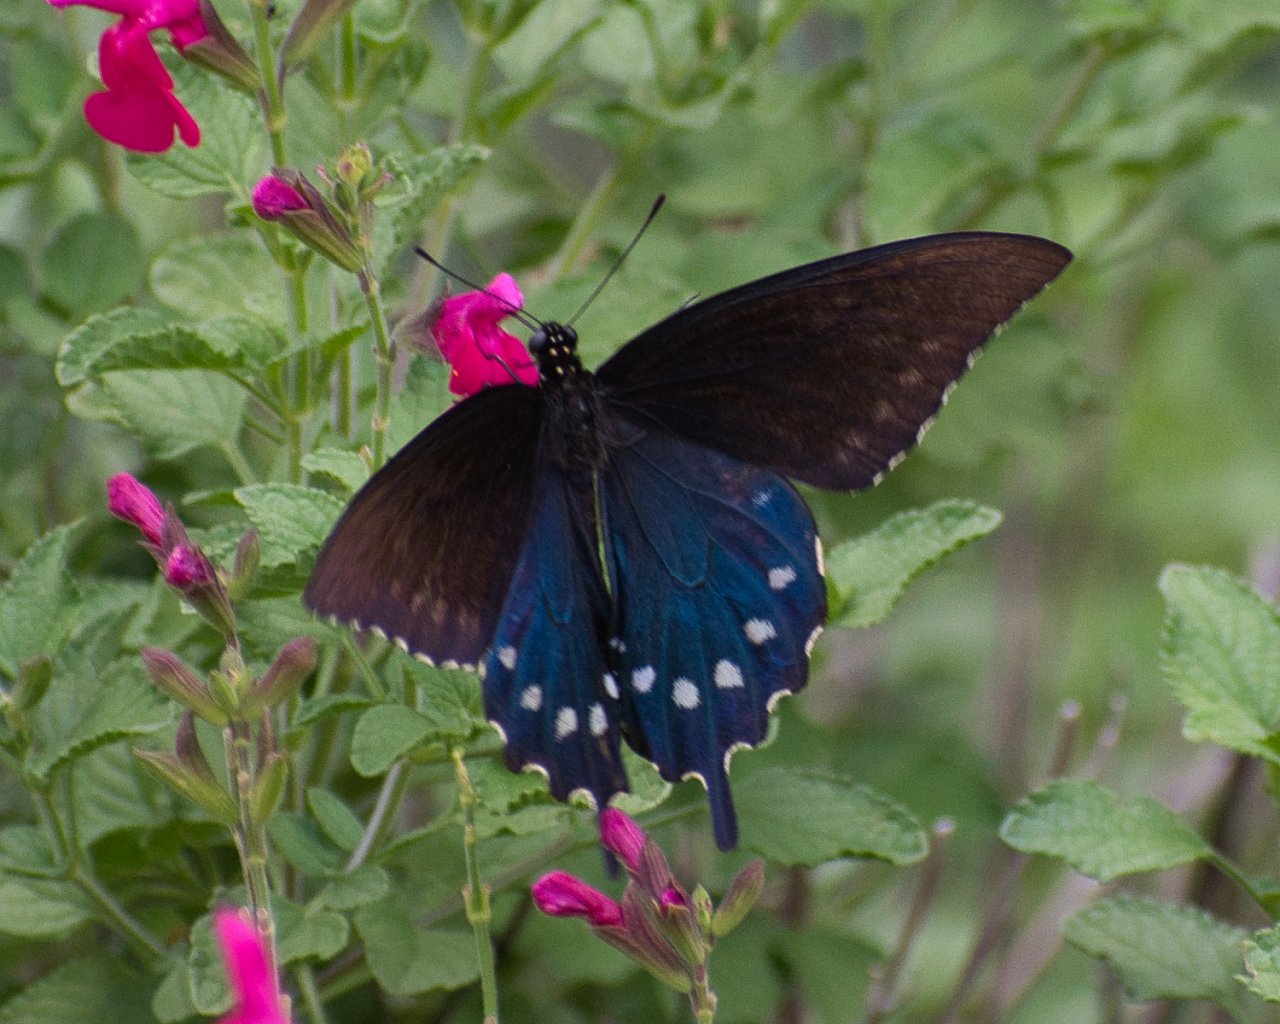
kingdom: Animalia
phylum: Arthropoda
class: Insecta
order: Lepidoptera
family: Papilionidae
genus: Battus
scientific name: Battus philenor
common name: Pipevine Swallowtail
